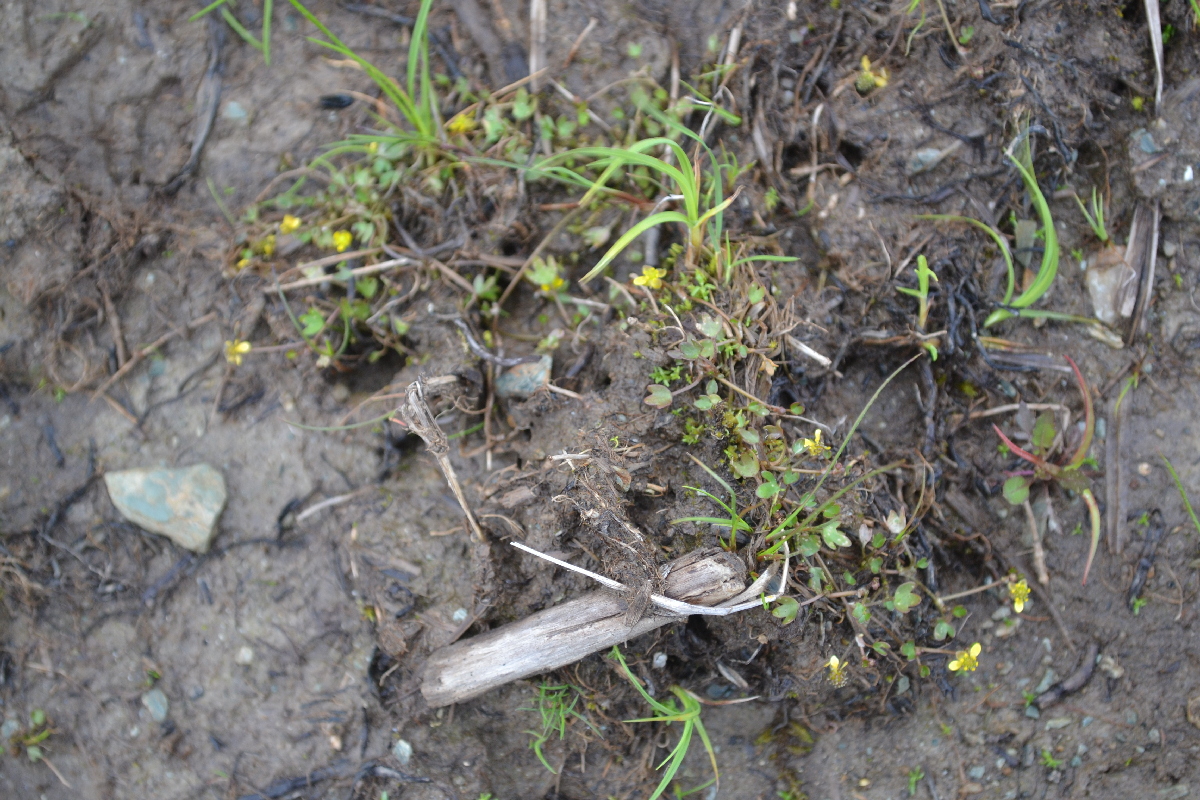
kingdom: Plantae
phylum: Tracheophyta
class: Magnoliopsida
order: Ranunculales
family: Ranunculaceae
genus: Ranunculus
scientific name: Ranunculus hyperboreus
